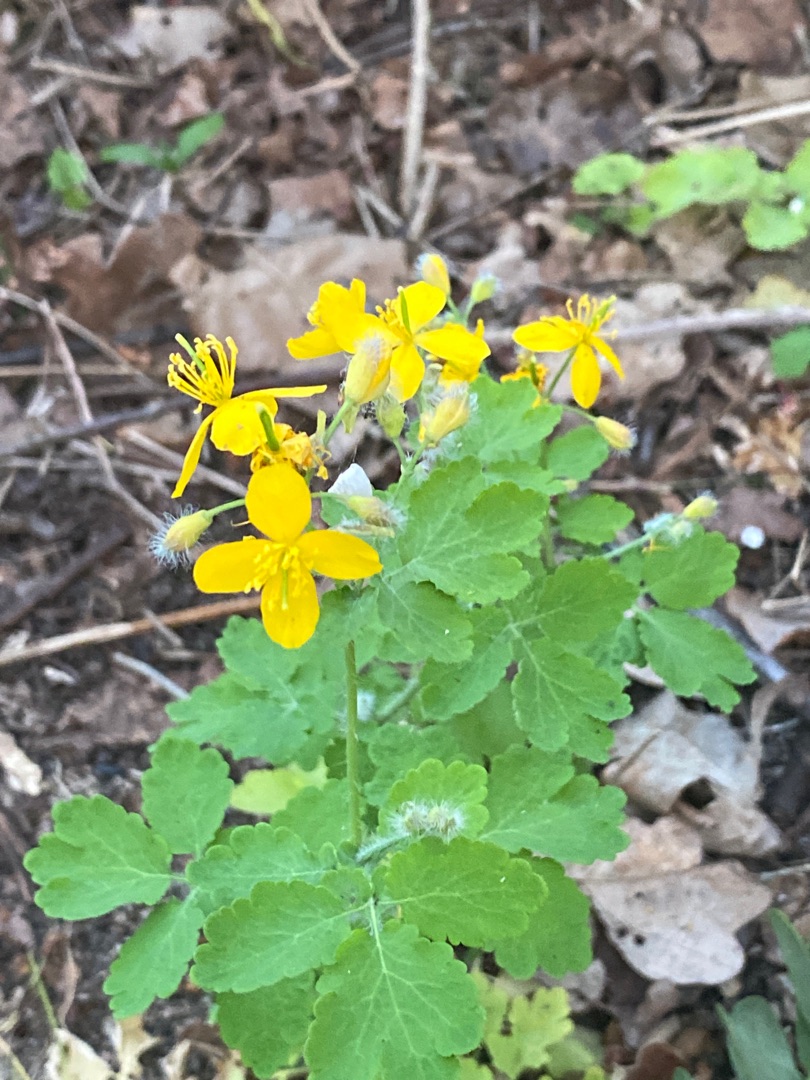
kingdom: Plantae
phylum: Tracheophyta
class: Magnoliopsida
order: Ranunculales
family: Papaveraceae
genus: Chelidonium
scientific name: Chelidonium majus
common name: Svaleurt
